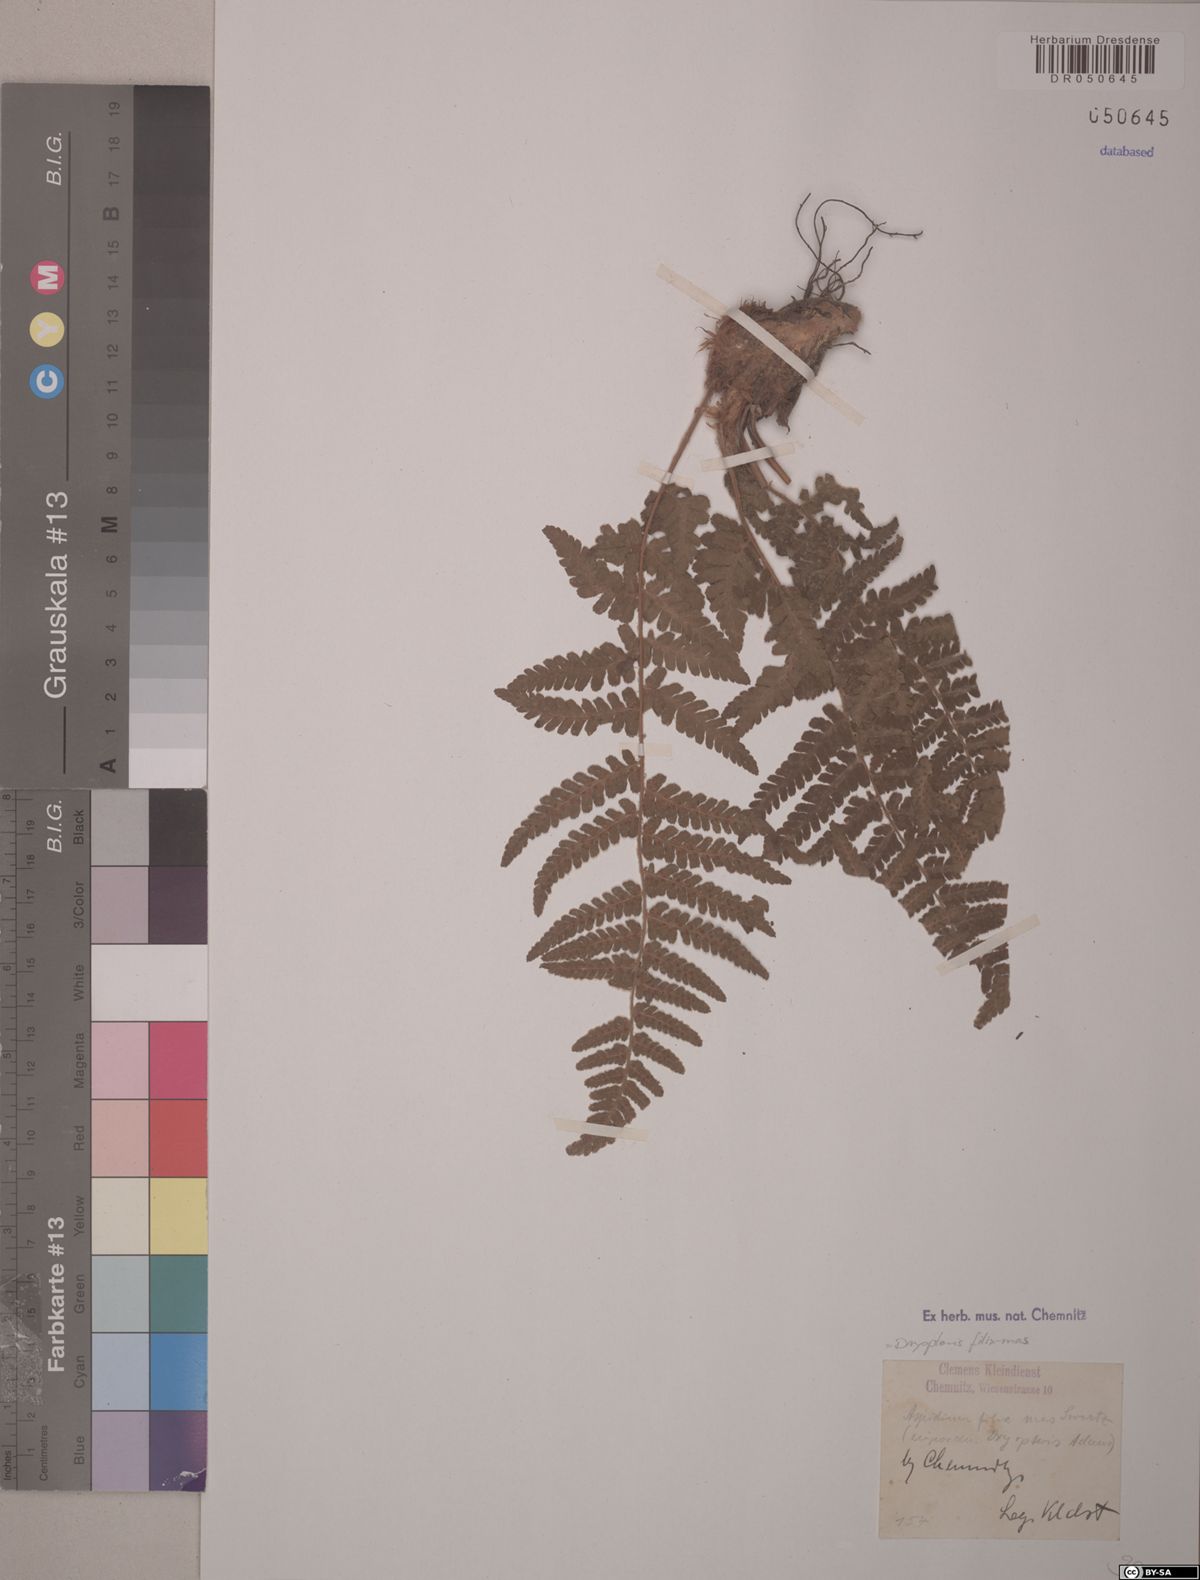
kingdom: Plantae
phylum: Tracheophyta
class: Polypodiopsida
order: Polypodiales
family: Dryopteridaceae
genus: Dryopteris
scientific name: Dryopteris filix-mas
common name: Male fern
